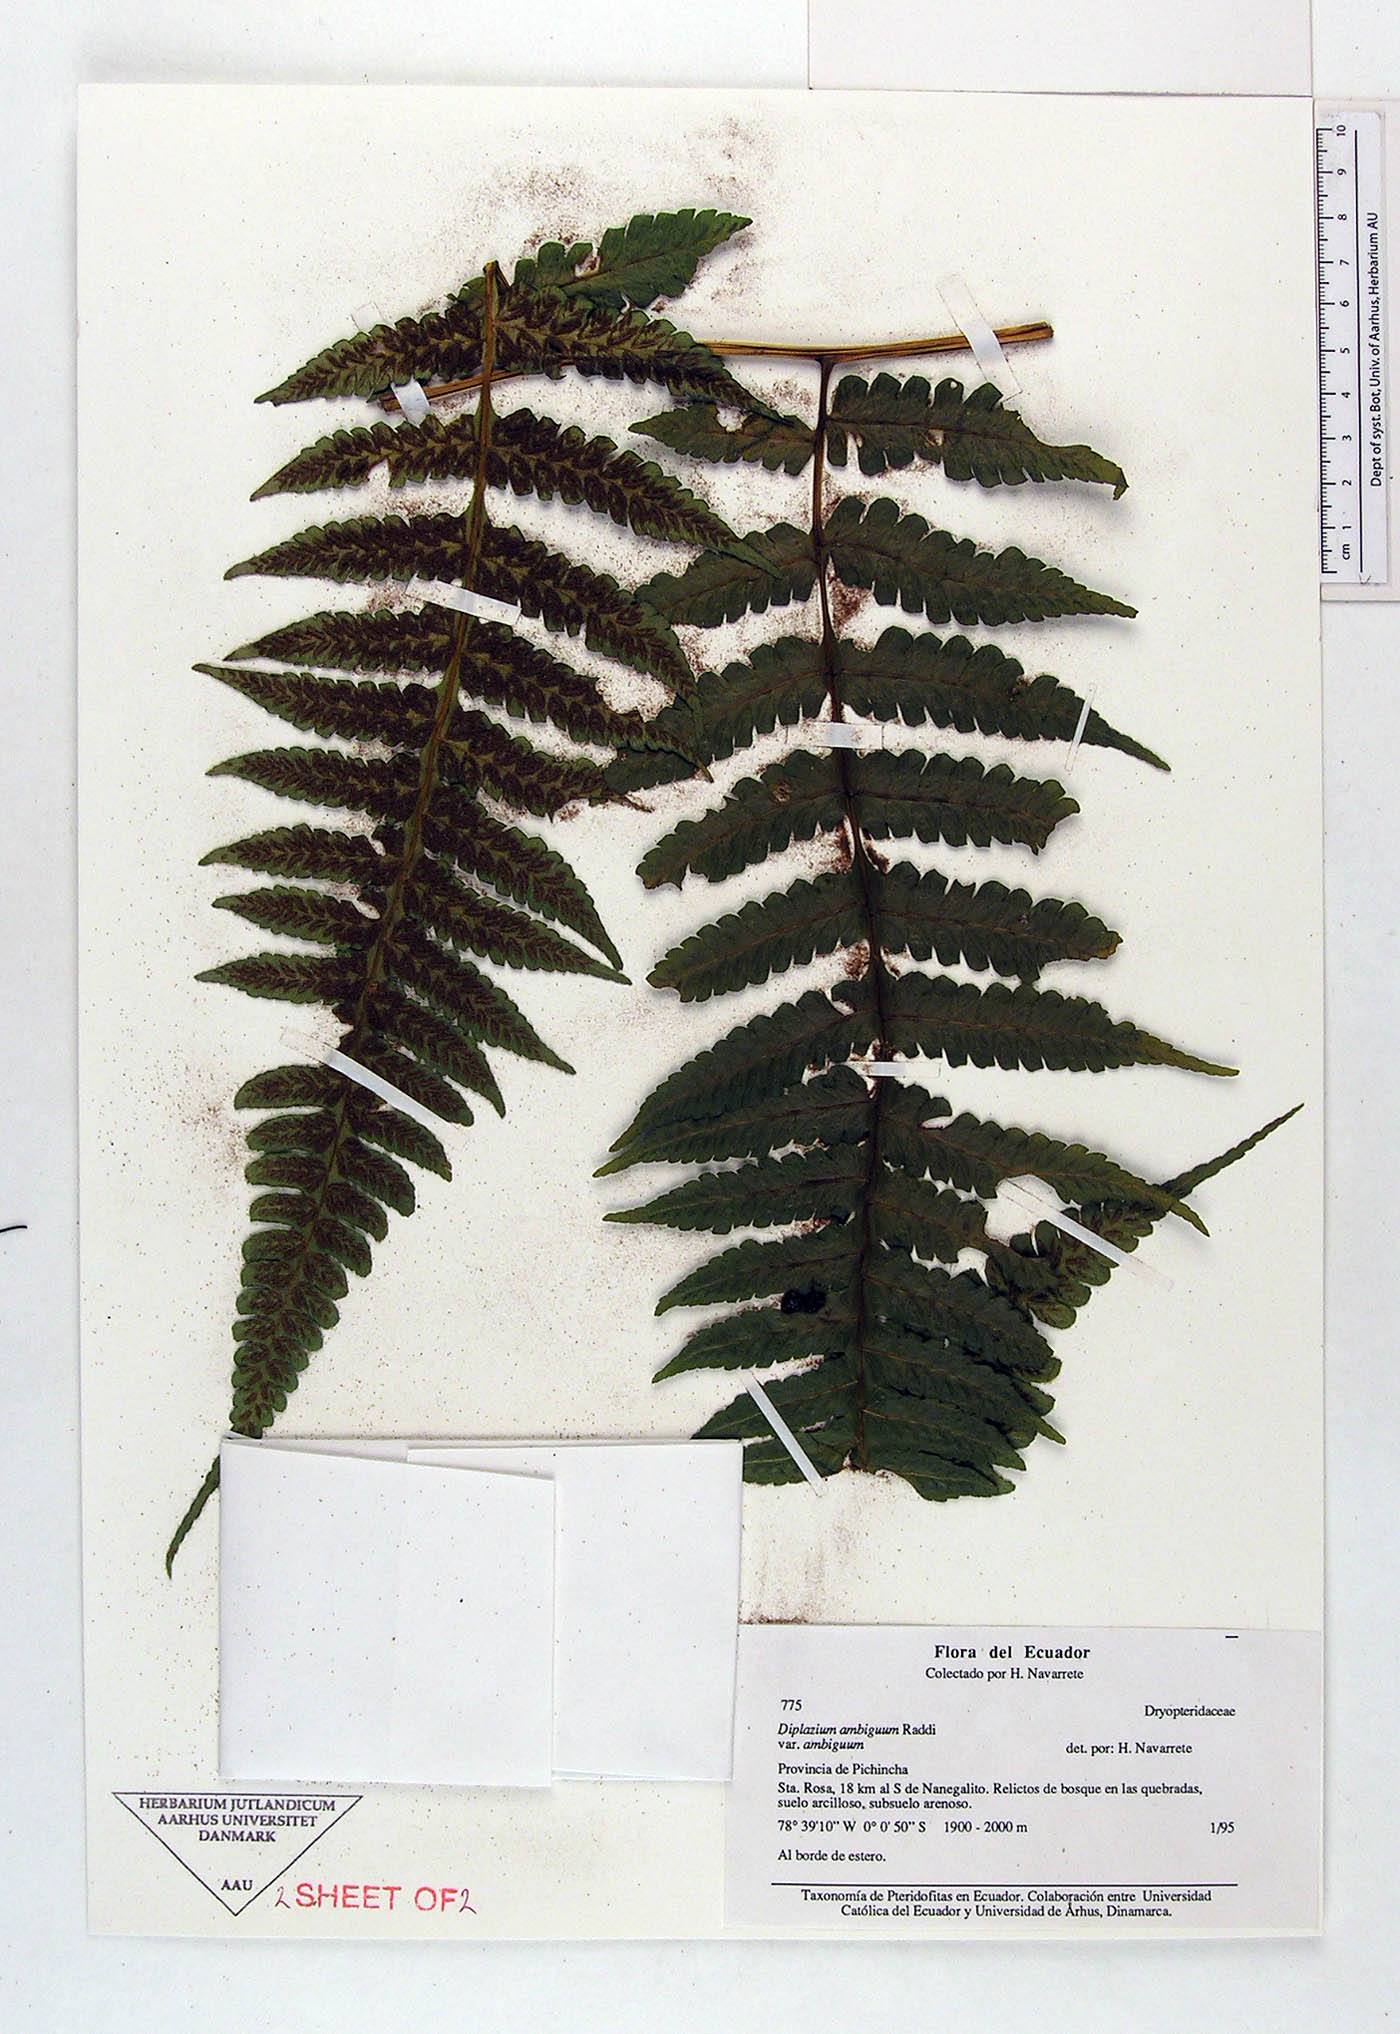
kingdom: Plantae
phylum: Tracheophyta
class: Polypodiopsida
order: Polypodiales
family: Athyriaceae
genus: Diplazium
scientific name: Diplazium ambiguum
